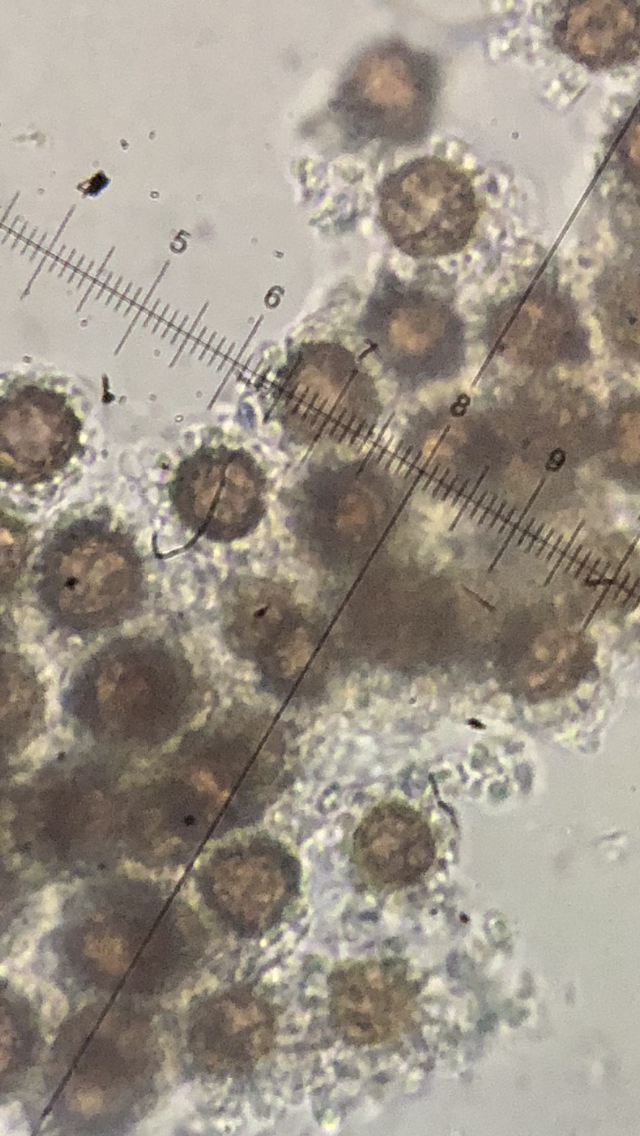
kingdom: Fungi
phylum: Basidiomycota
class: Agaricomycetes
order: Boletales
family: Sclerodermataceae
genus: Scleroderma
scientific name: Scleroderma polyrhizum
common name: Many-rooted earthball
